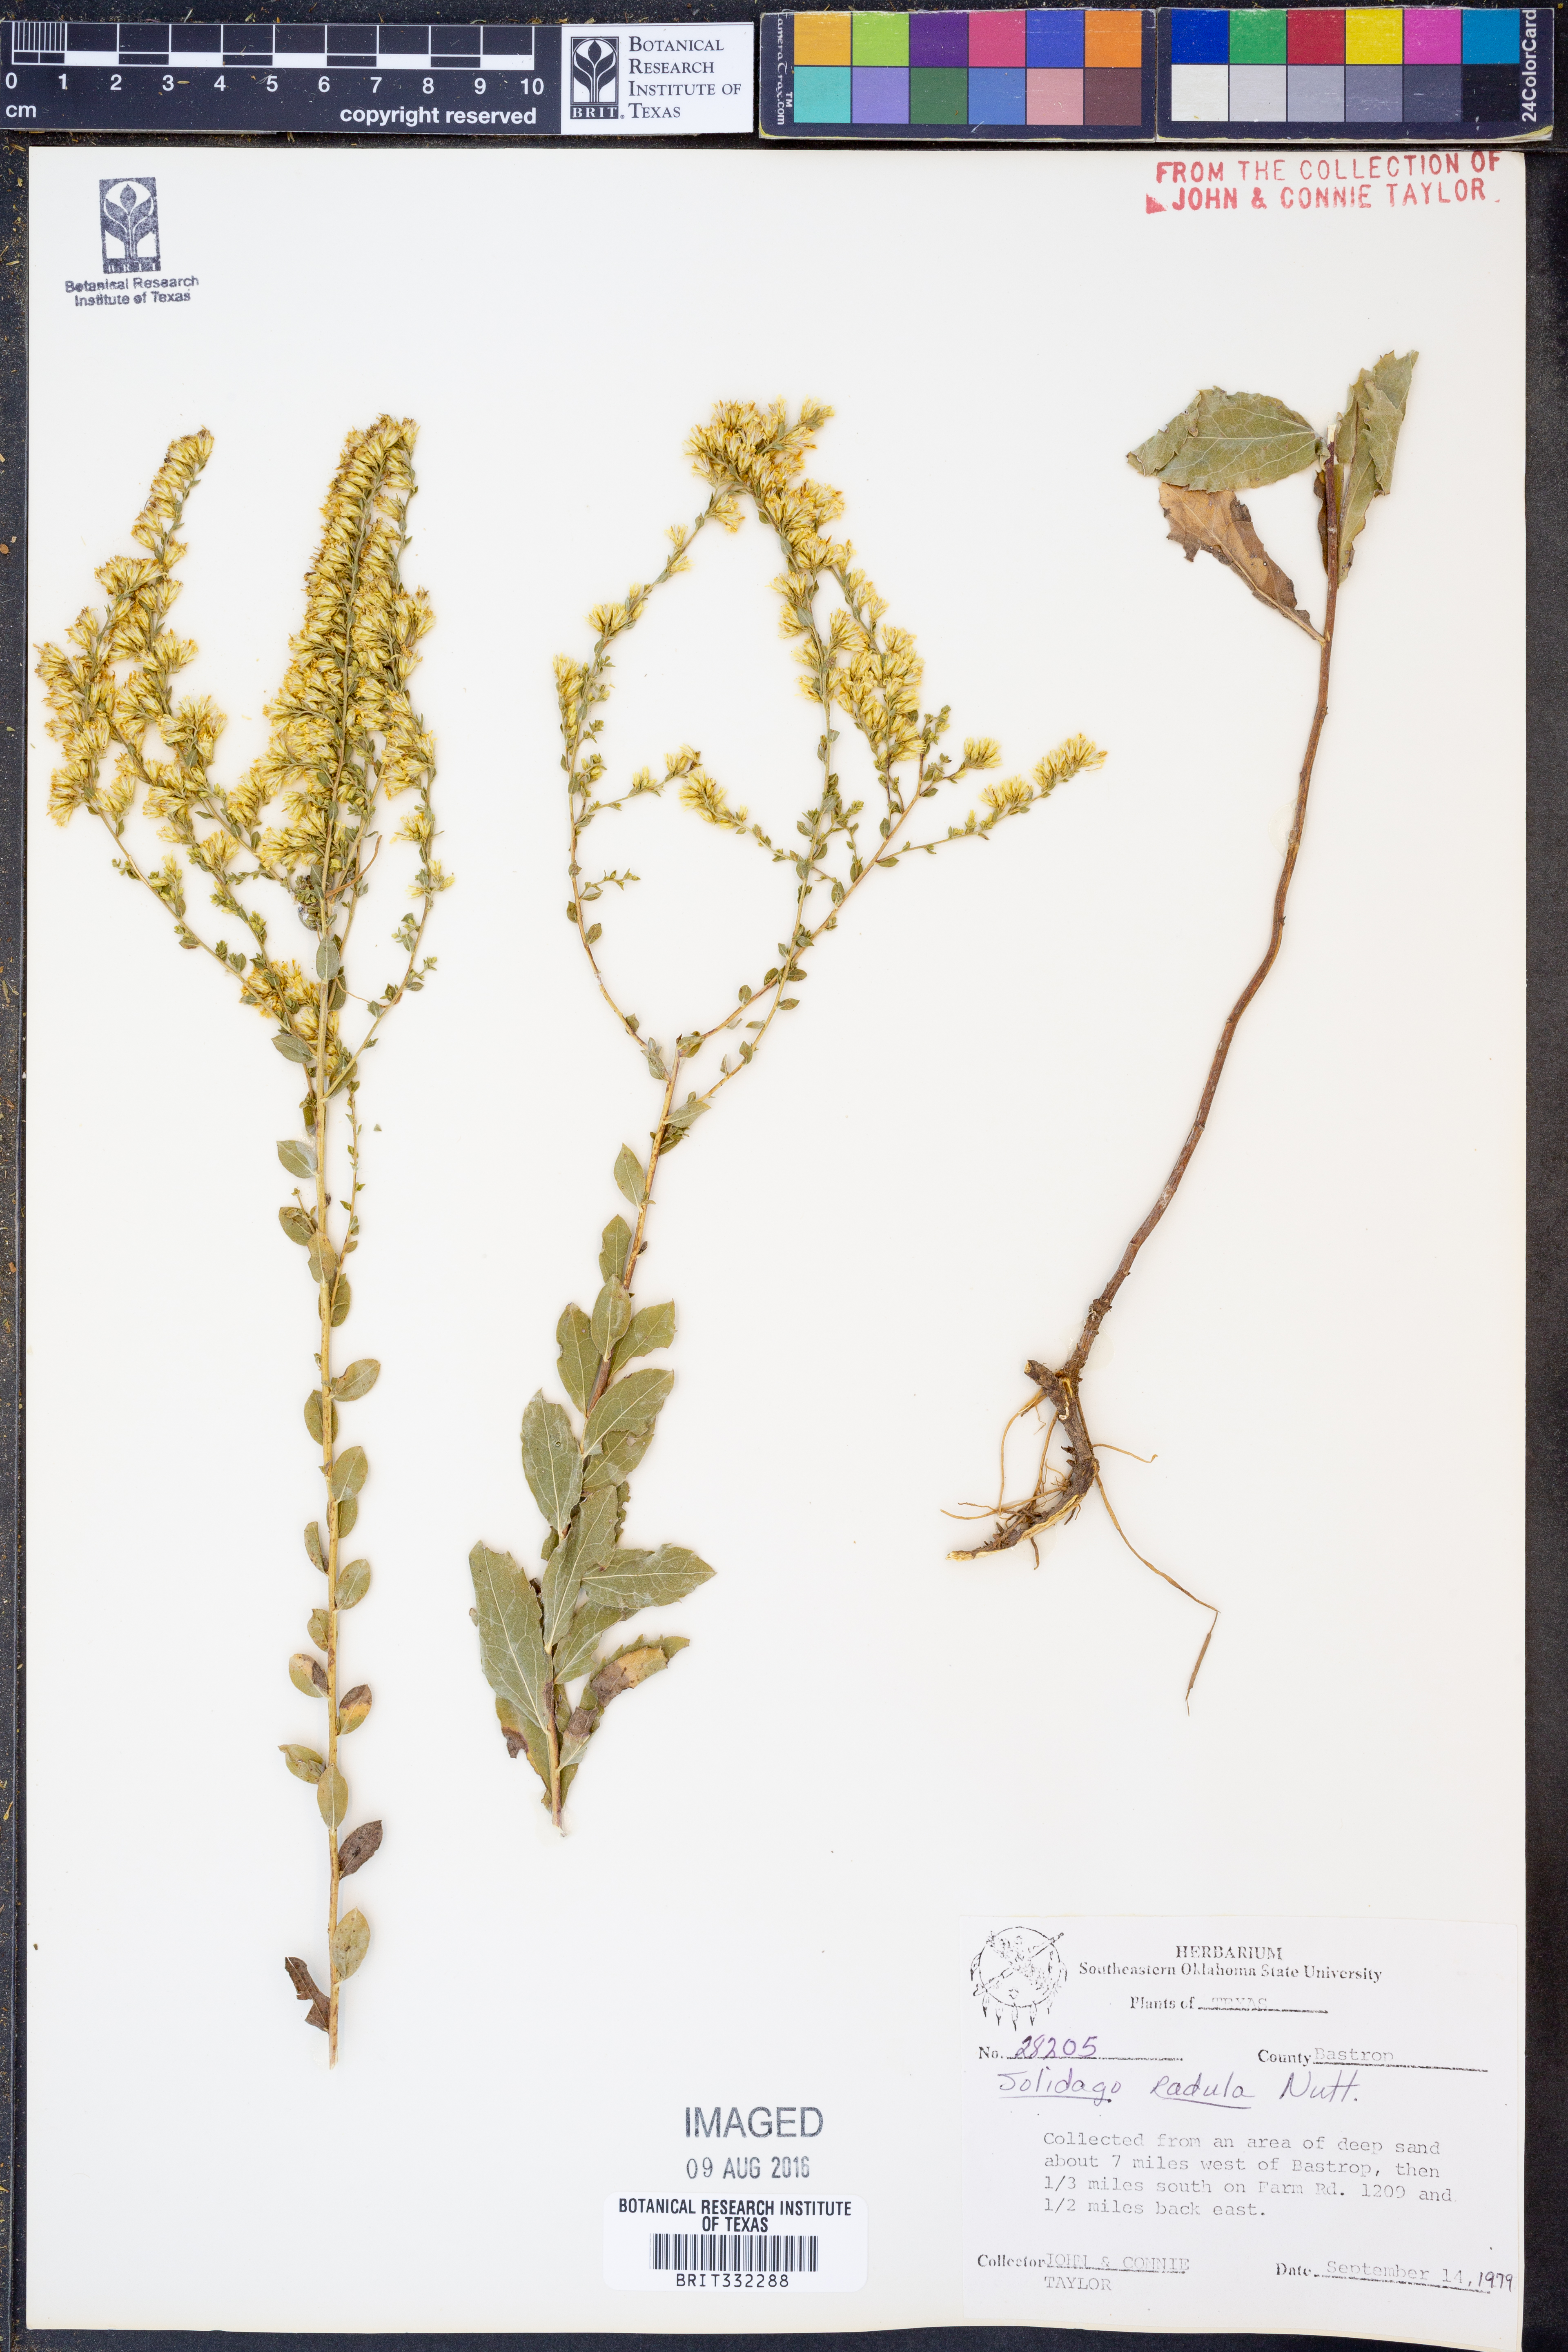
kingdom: Plantae
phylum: Tracheophyta
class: Magnoliopsida
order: Asterales
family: Asteraceae
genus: Solidago
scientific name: Solidago radula
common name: Western rough goldenrod
